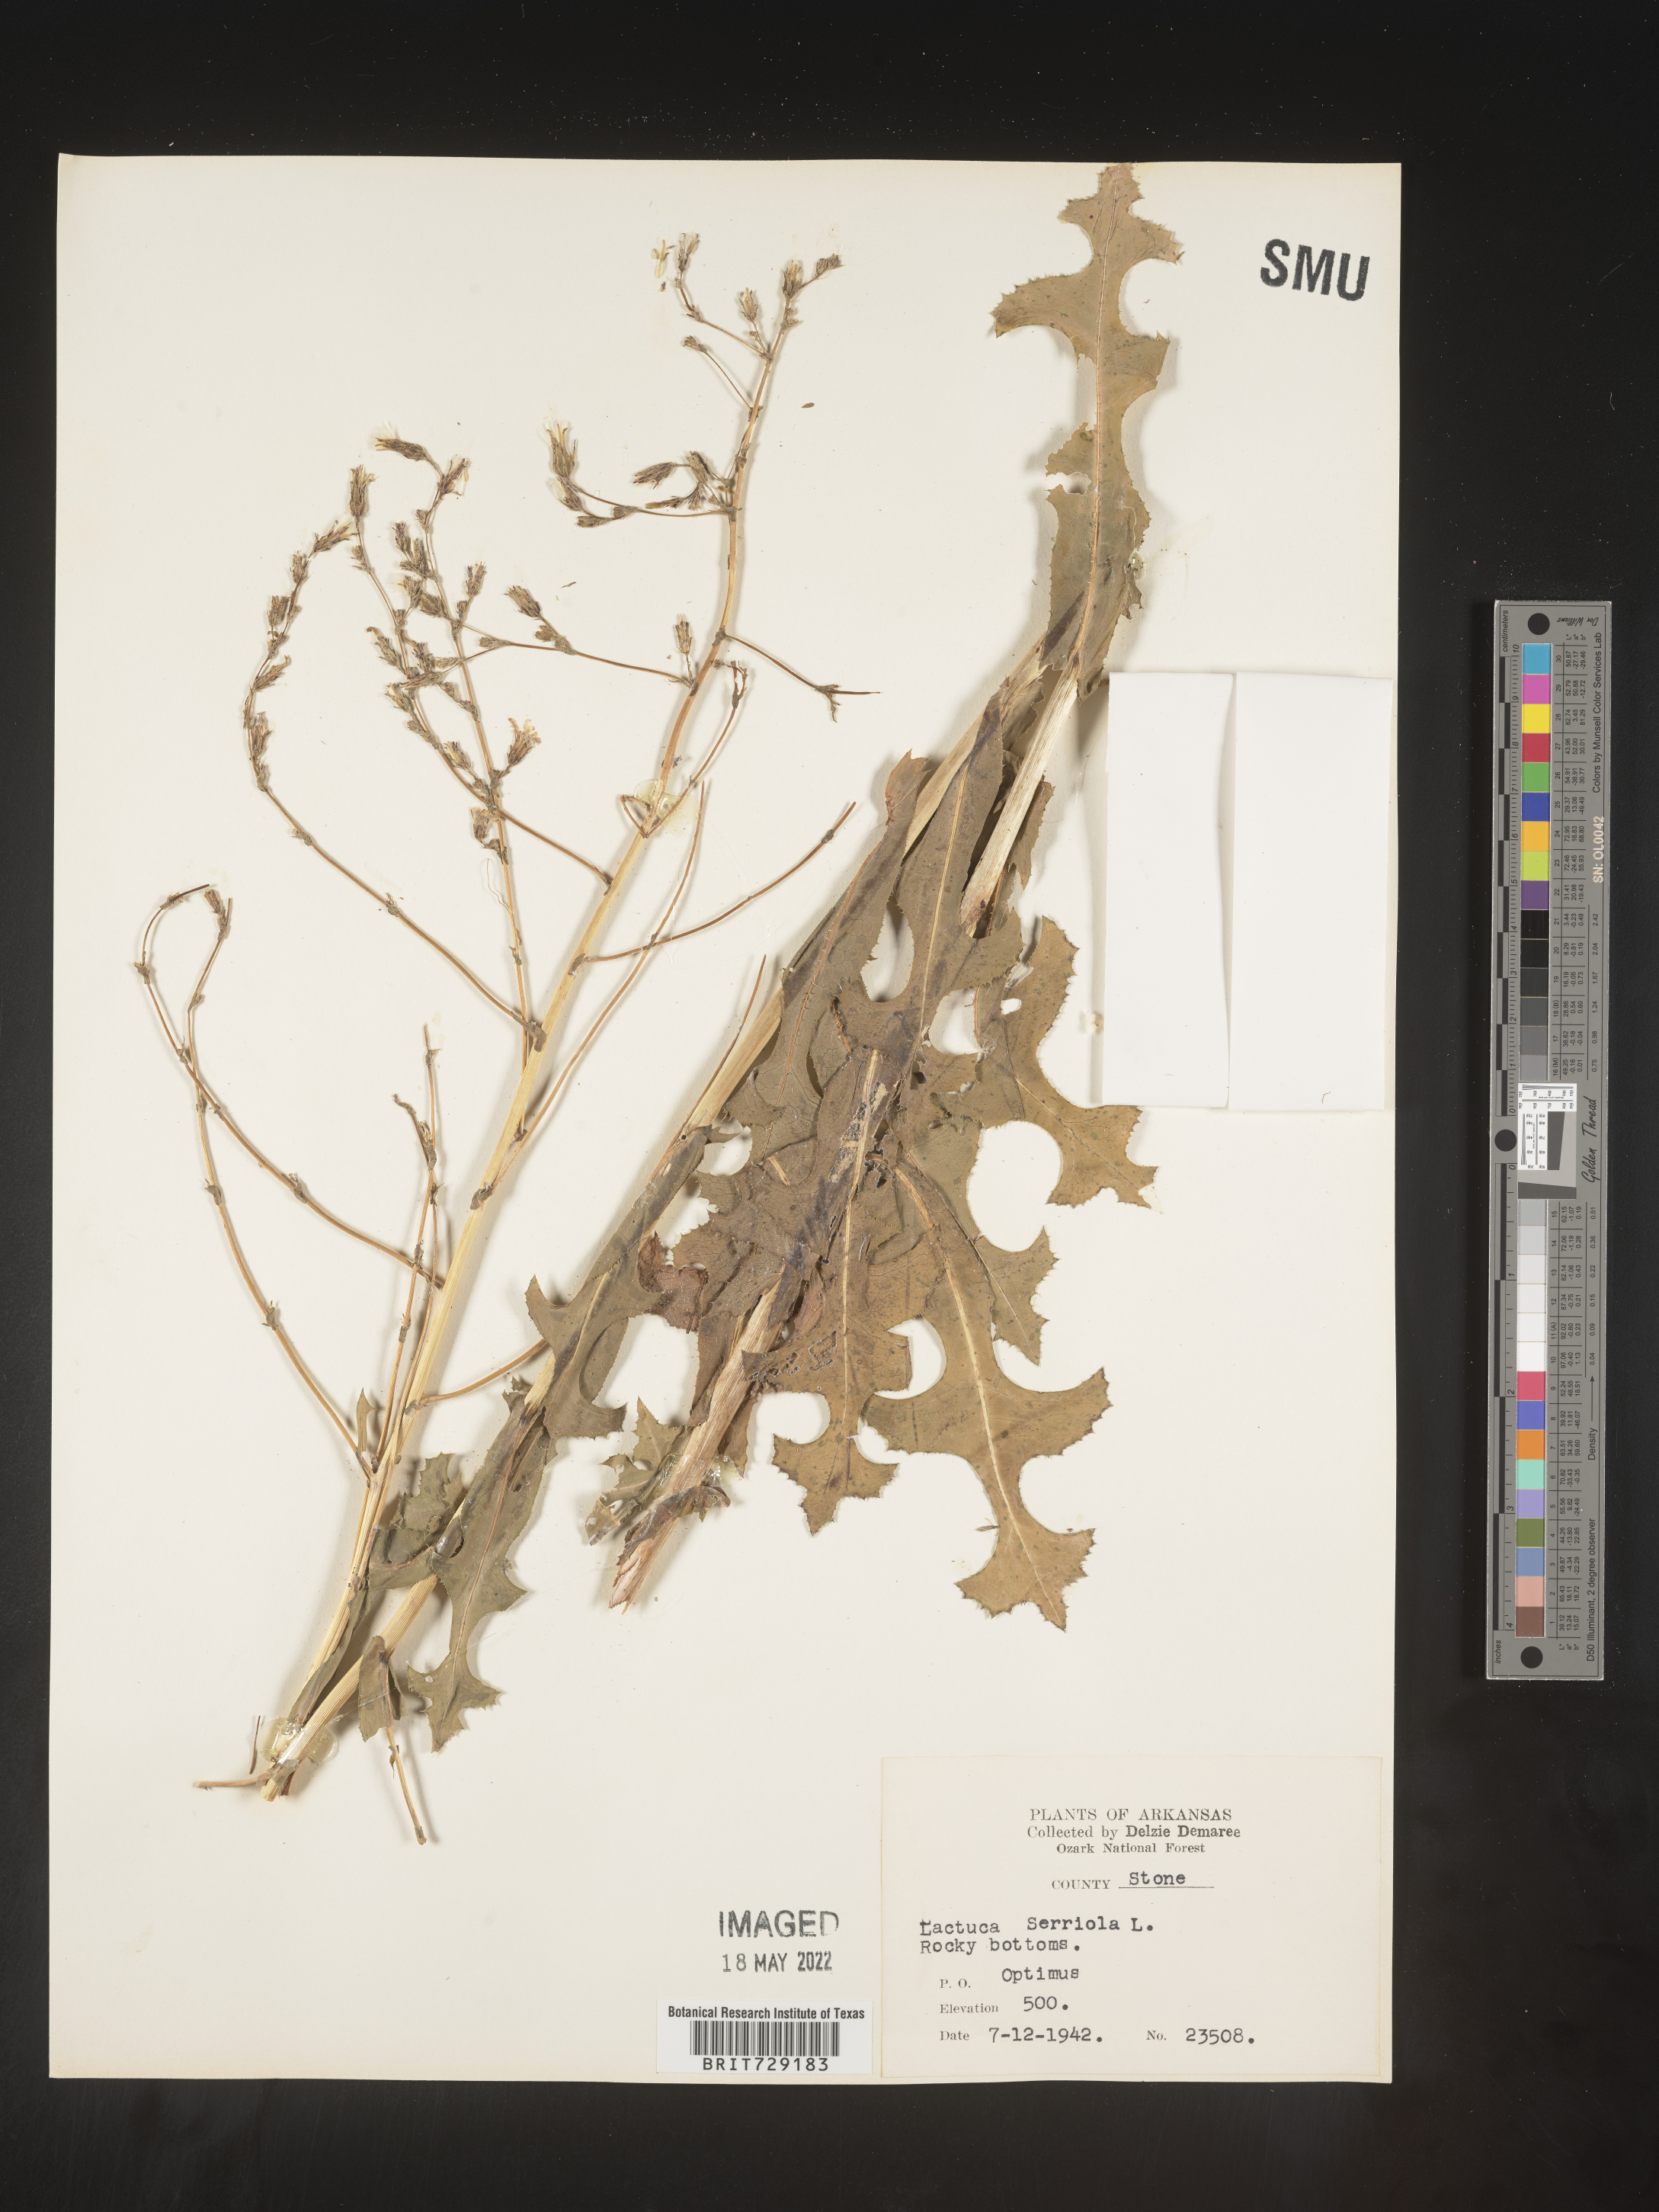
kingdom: Plantae
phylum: Tracheophyta
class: Magnoliopsida
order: Asterales
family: Asteraceae
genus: Lactuca
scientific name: Lactuca serriola
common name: Prickly lettuce
